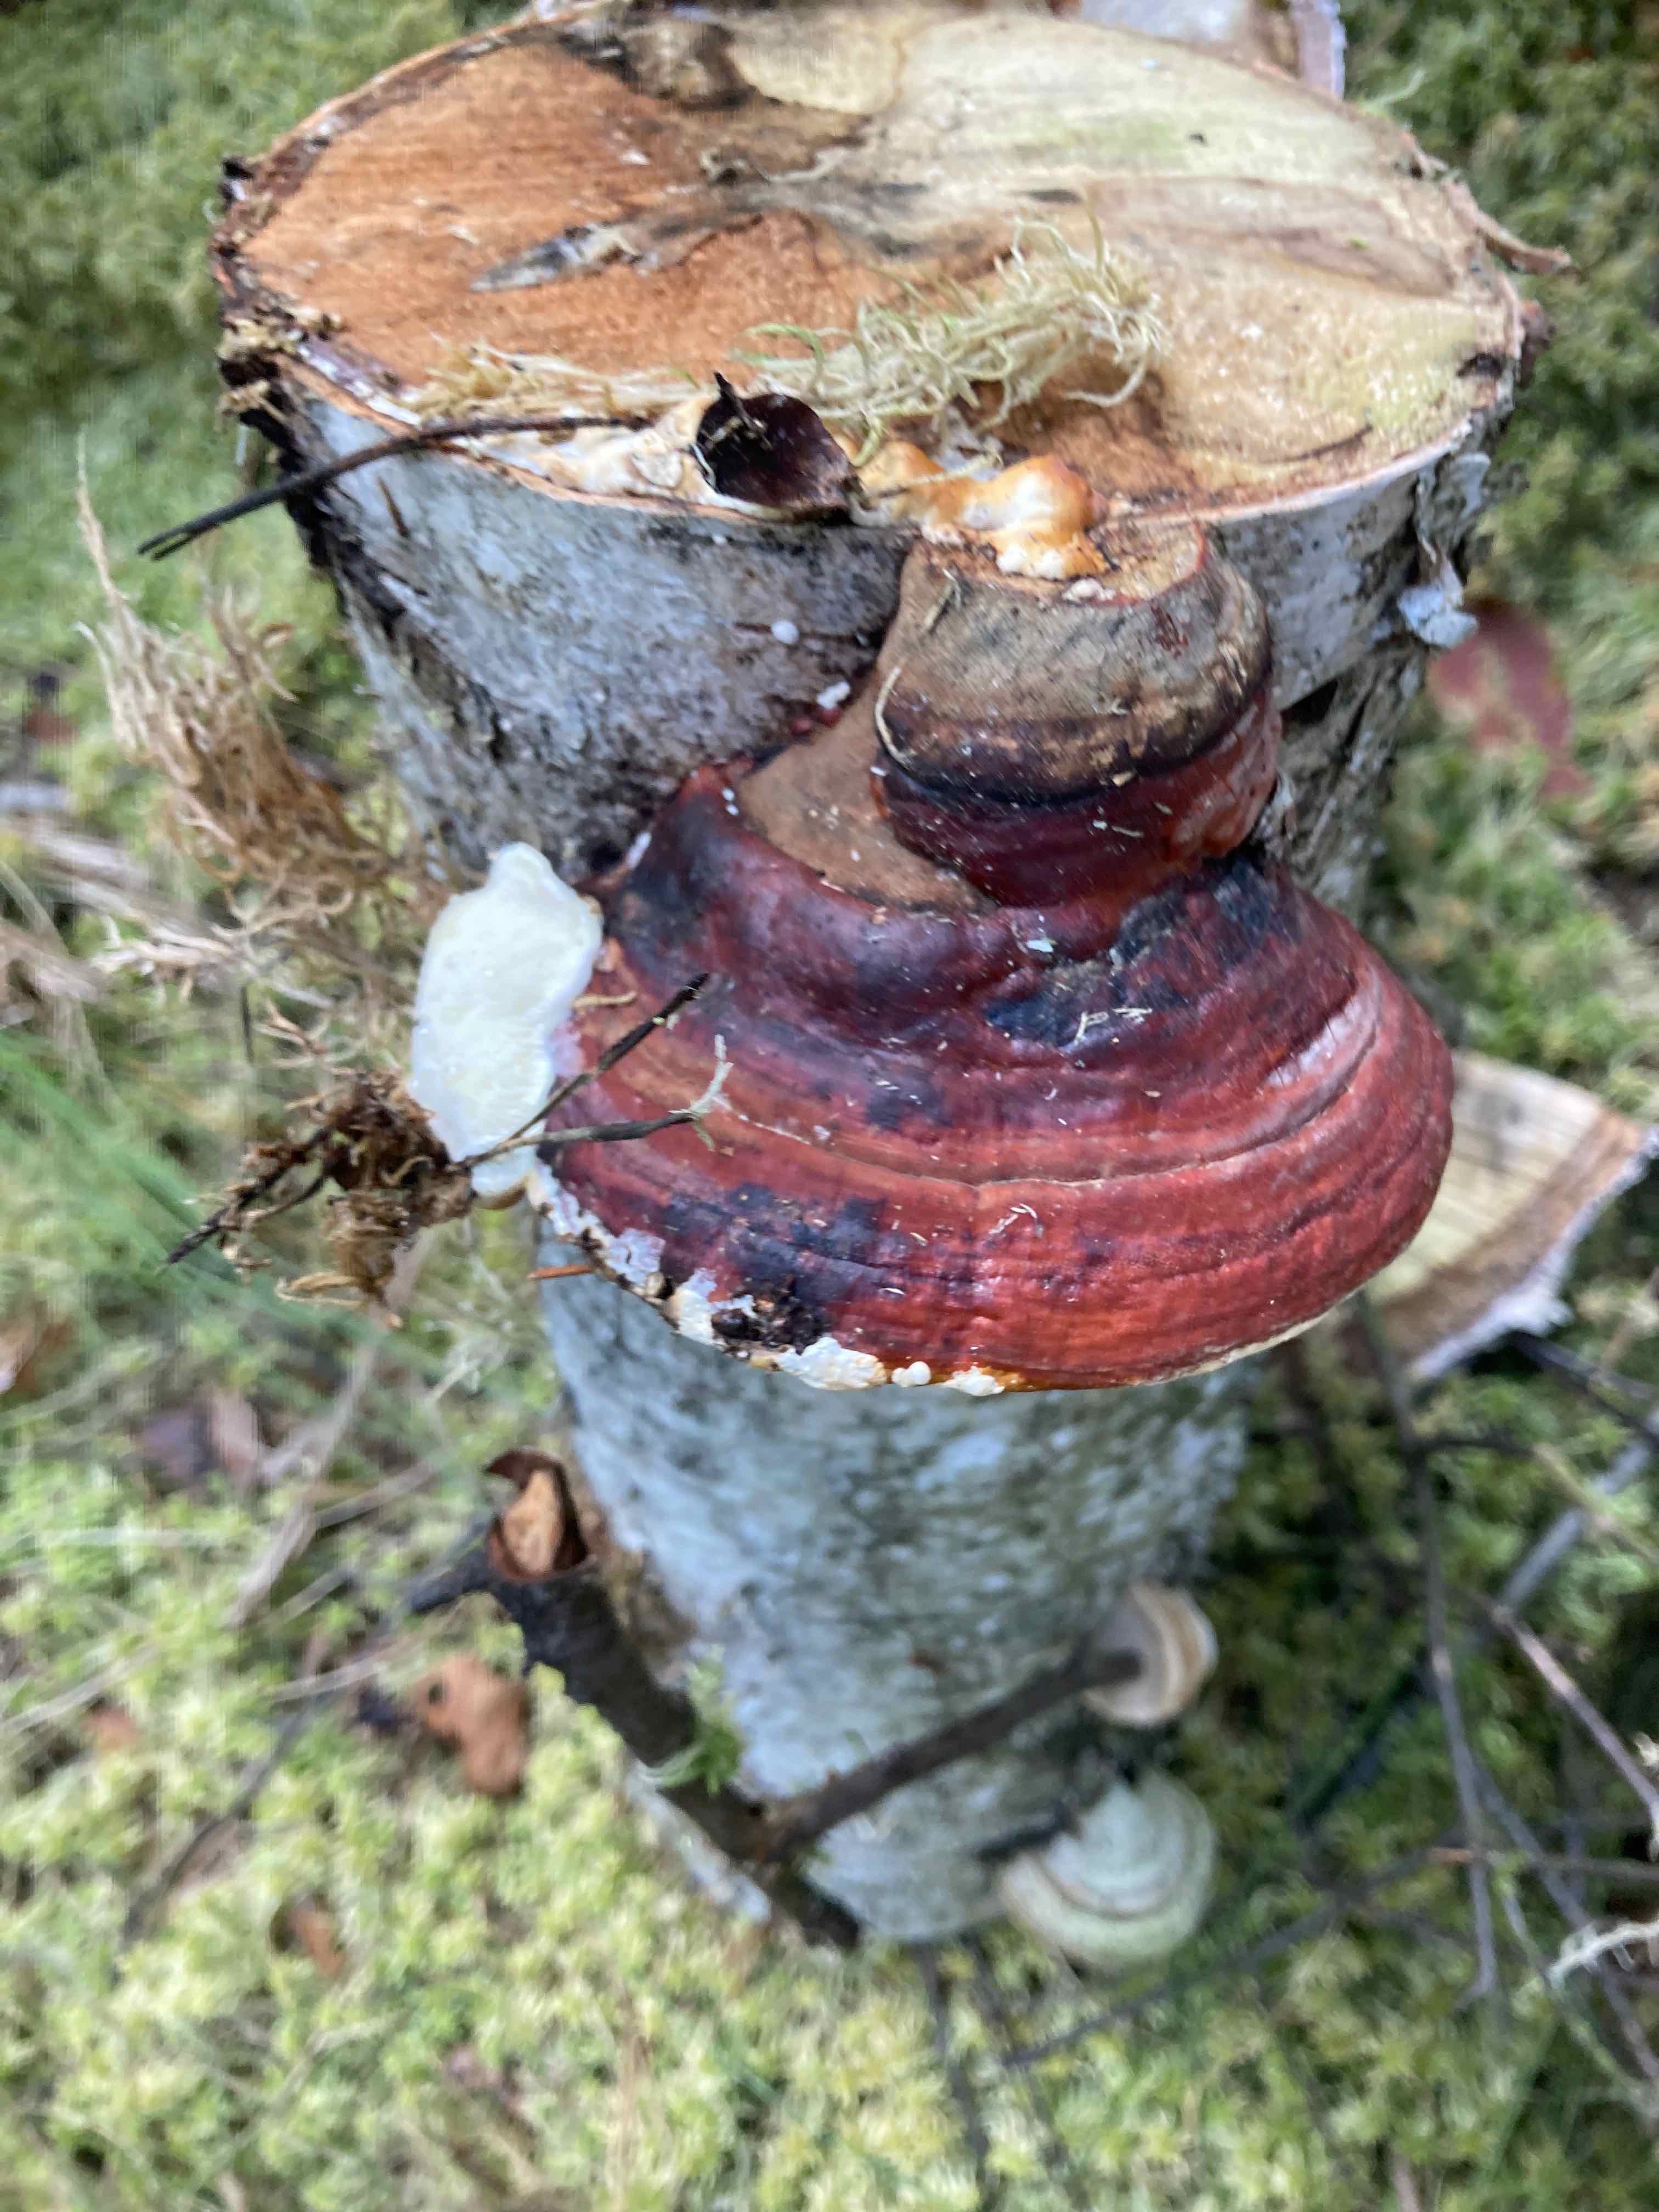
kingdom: Fungi
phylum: Basidiomycota
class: Agaricomycetes
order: Polyporales
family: Fomitopsidaceae
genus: Fomitopsis
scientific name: Fomitopsis pinicola
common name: randbæltet hovporesvamp
